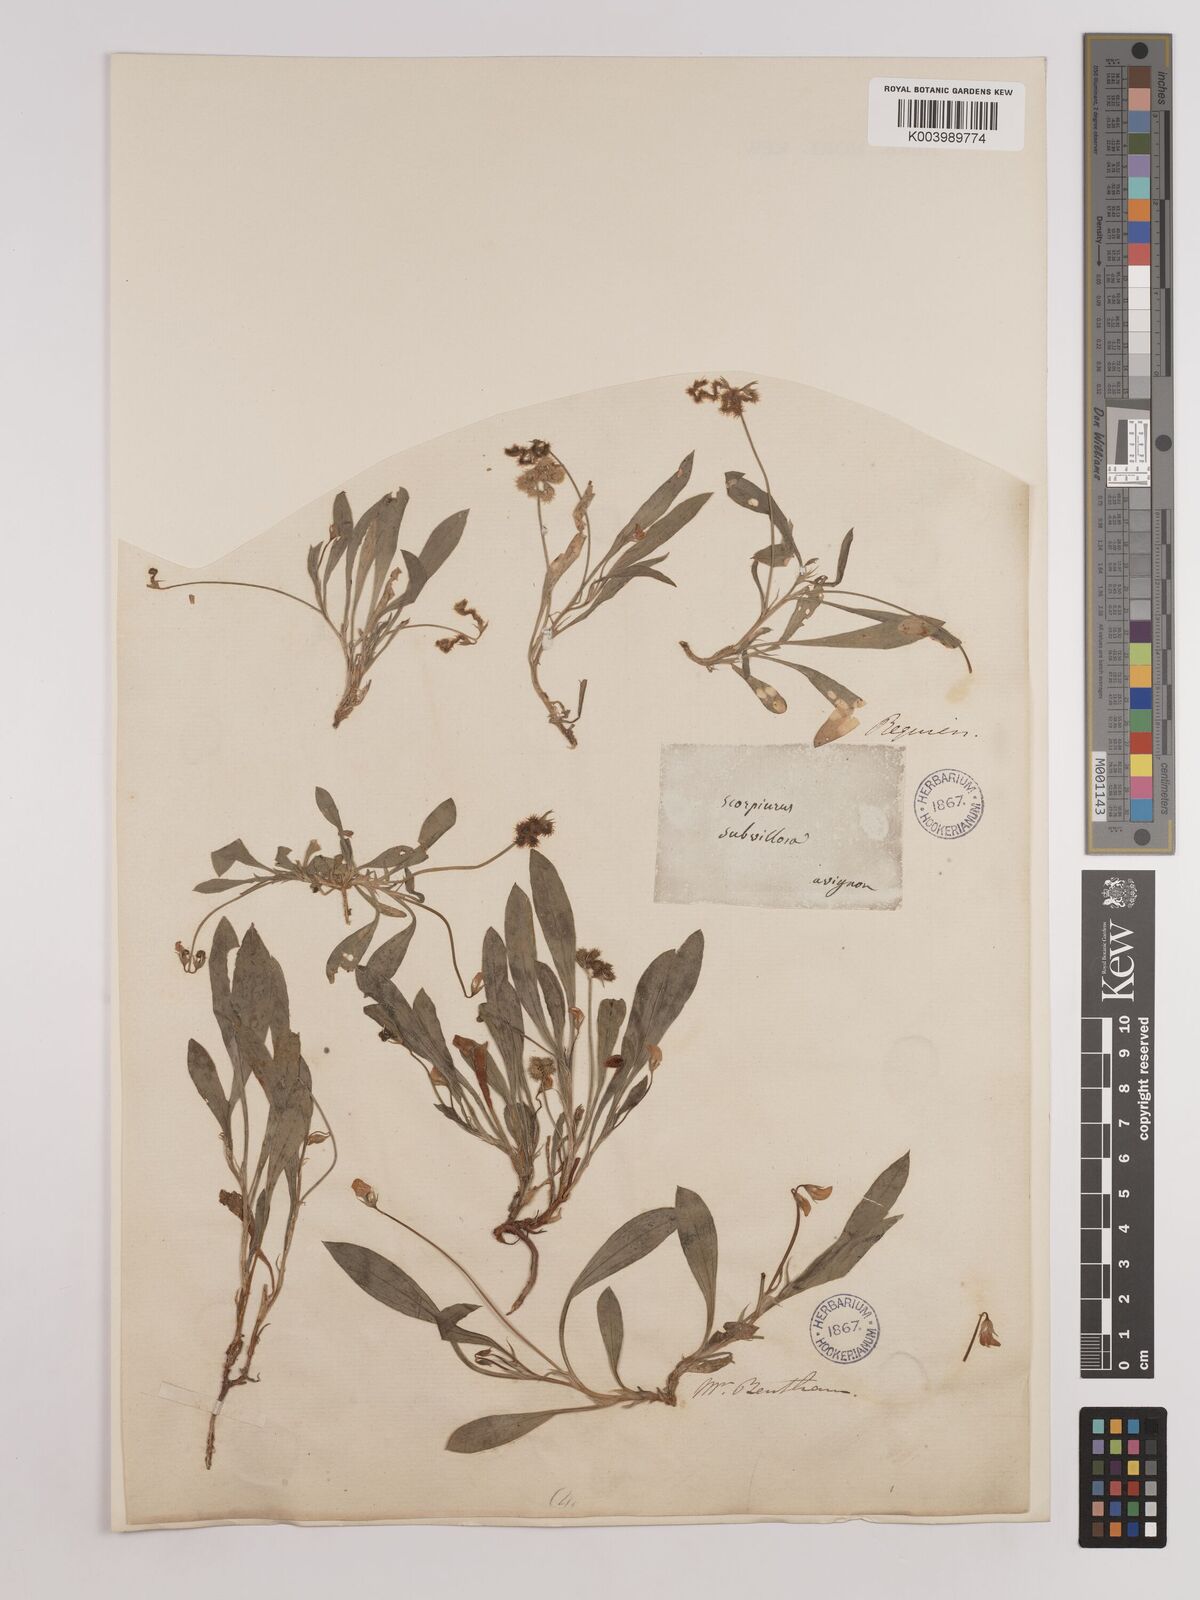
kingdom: Plantae
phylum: Tracheophyta
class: Magnoliopsida
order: Fabales
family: Fabaceae
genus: Scorpiurus
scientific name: Scorpiurus muricatus
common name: Caterpillar-plant
